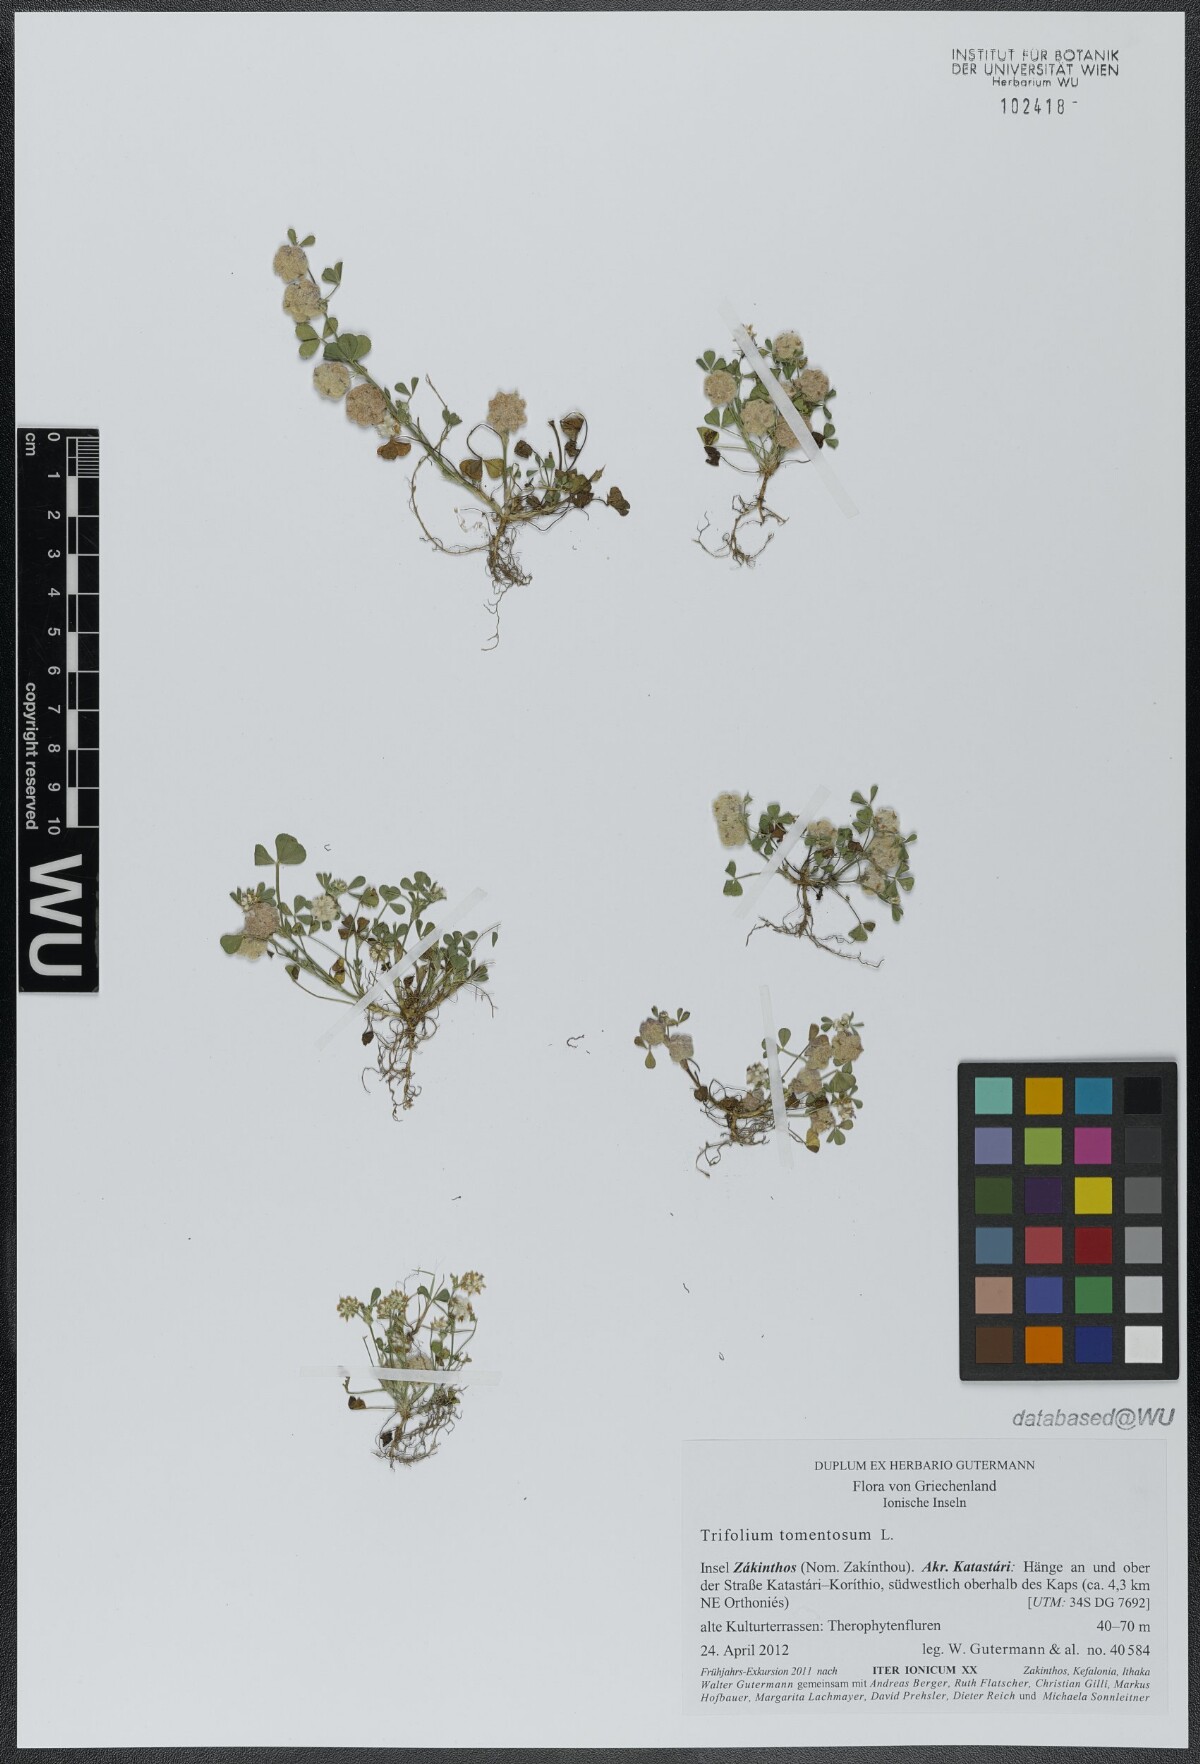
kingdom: Plantae
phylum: Tracheophyta
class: Magnoliopsida
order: Fabales
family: Fabaceae
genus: Trifolium
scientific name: Trifolium tomentosum
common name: Woolly clover
